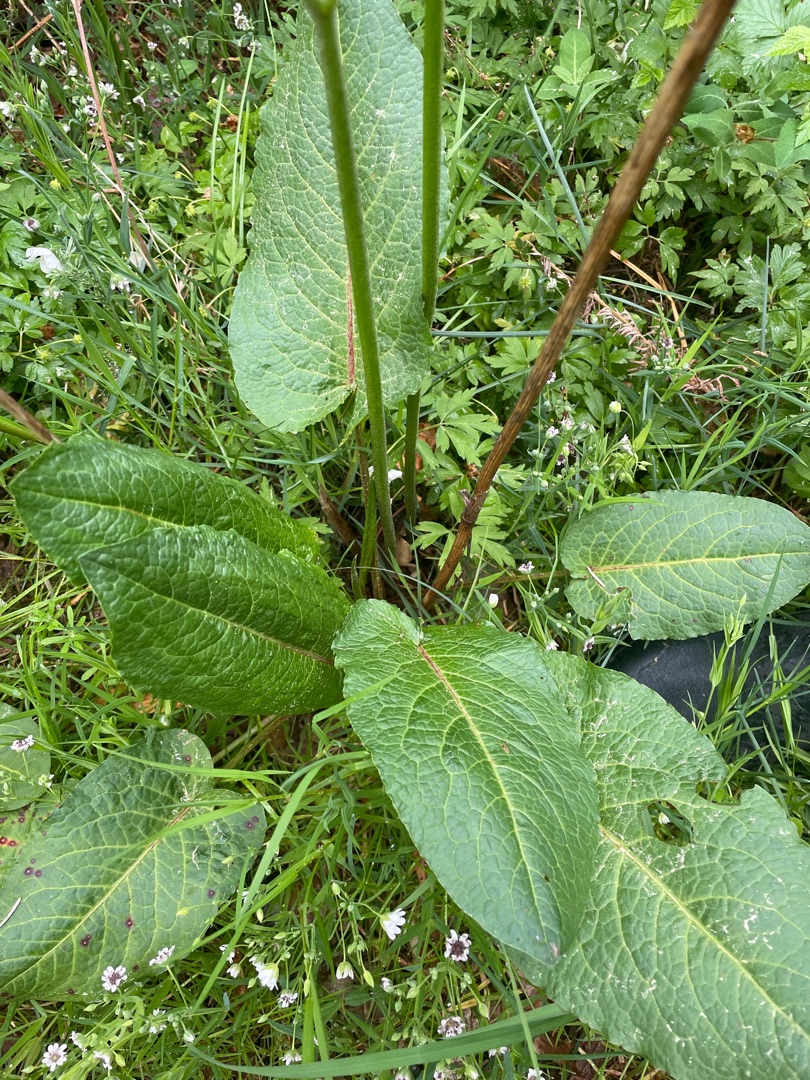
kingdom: Plantae
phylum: Tracheophyta
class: Magnoliopsida
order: Caryophyllales
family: Polygonaceae
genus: Rumex
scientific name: Rumex obtusifolius
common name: Butbladet skræppe
